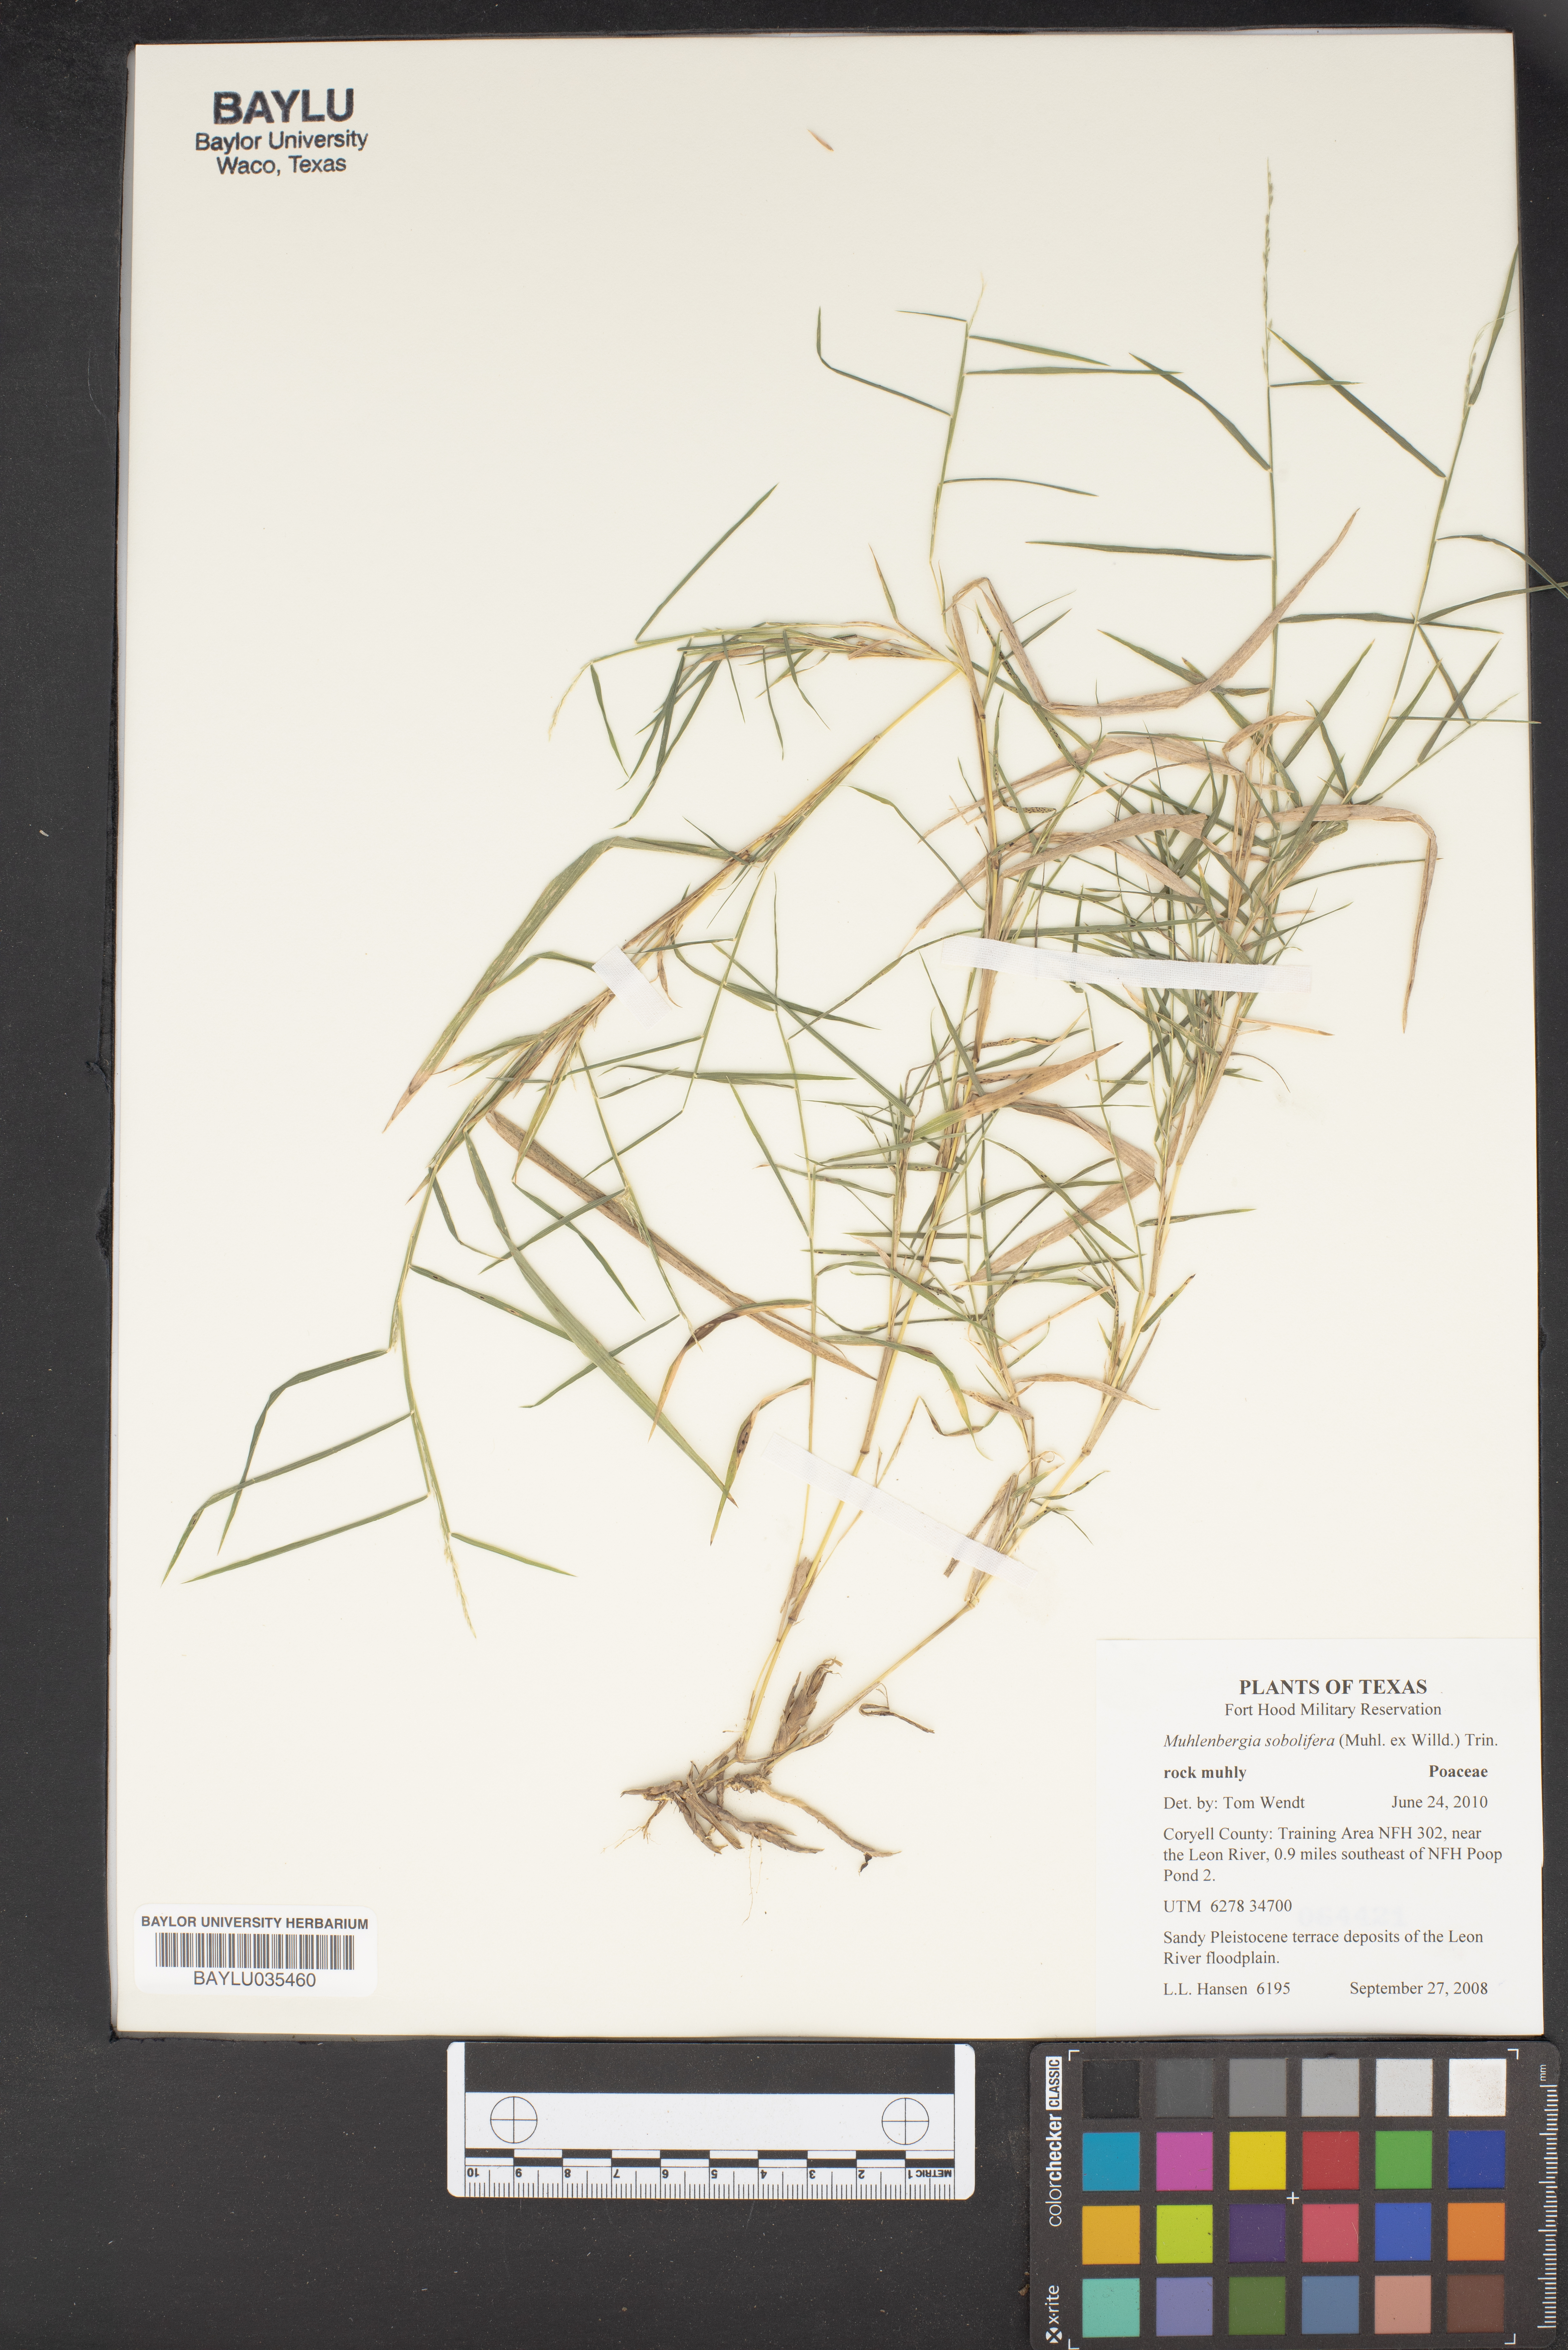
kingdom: Plantae
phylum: Tracheophyta
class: Liliopsida
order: Poales
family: Poaceae
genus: Muhlenbergia
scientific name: Muhlenbergia sobolifera
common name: Creeping muhly
